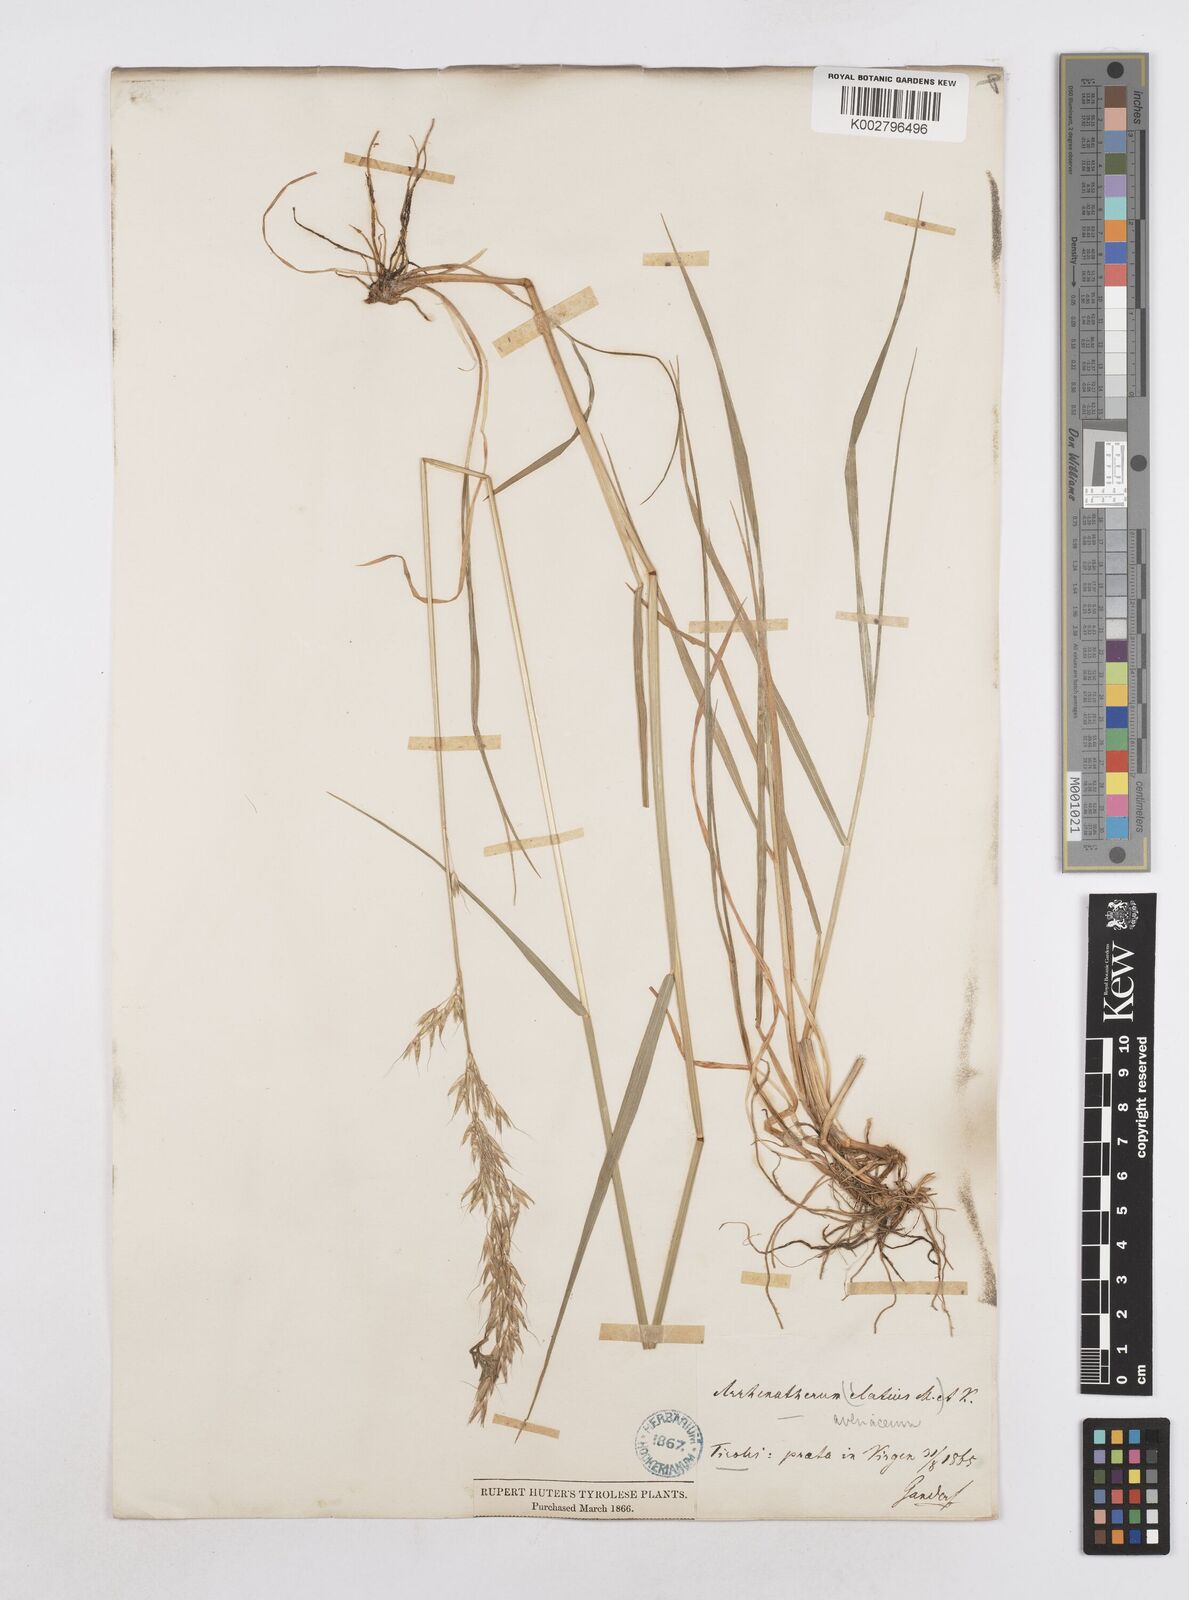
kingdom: Plantae
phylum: Tracheophyta
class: Liliopsida
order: Poales
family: Poaceae
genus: Arrhenatherum
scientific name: Arrhenatherum elatius
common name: Tall oatgrass
